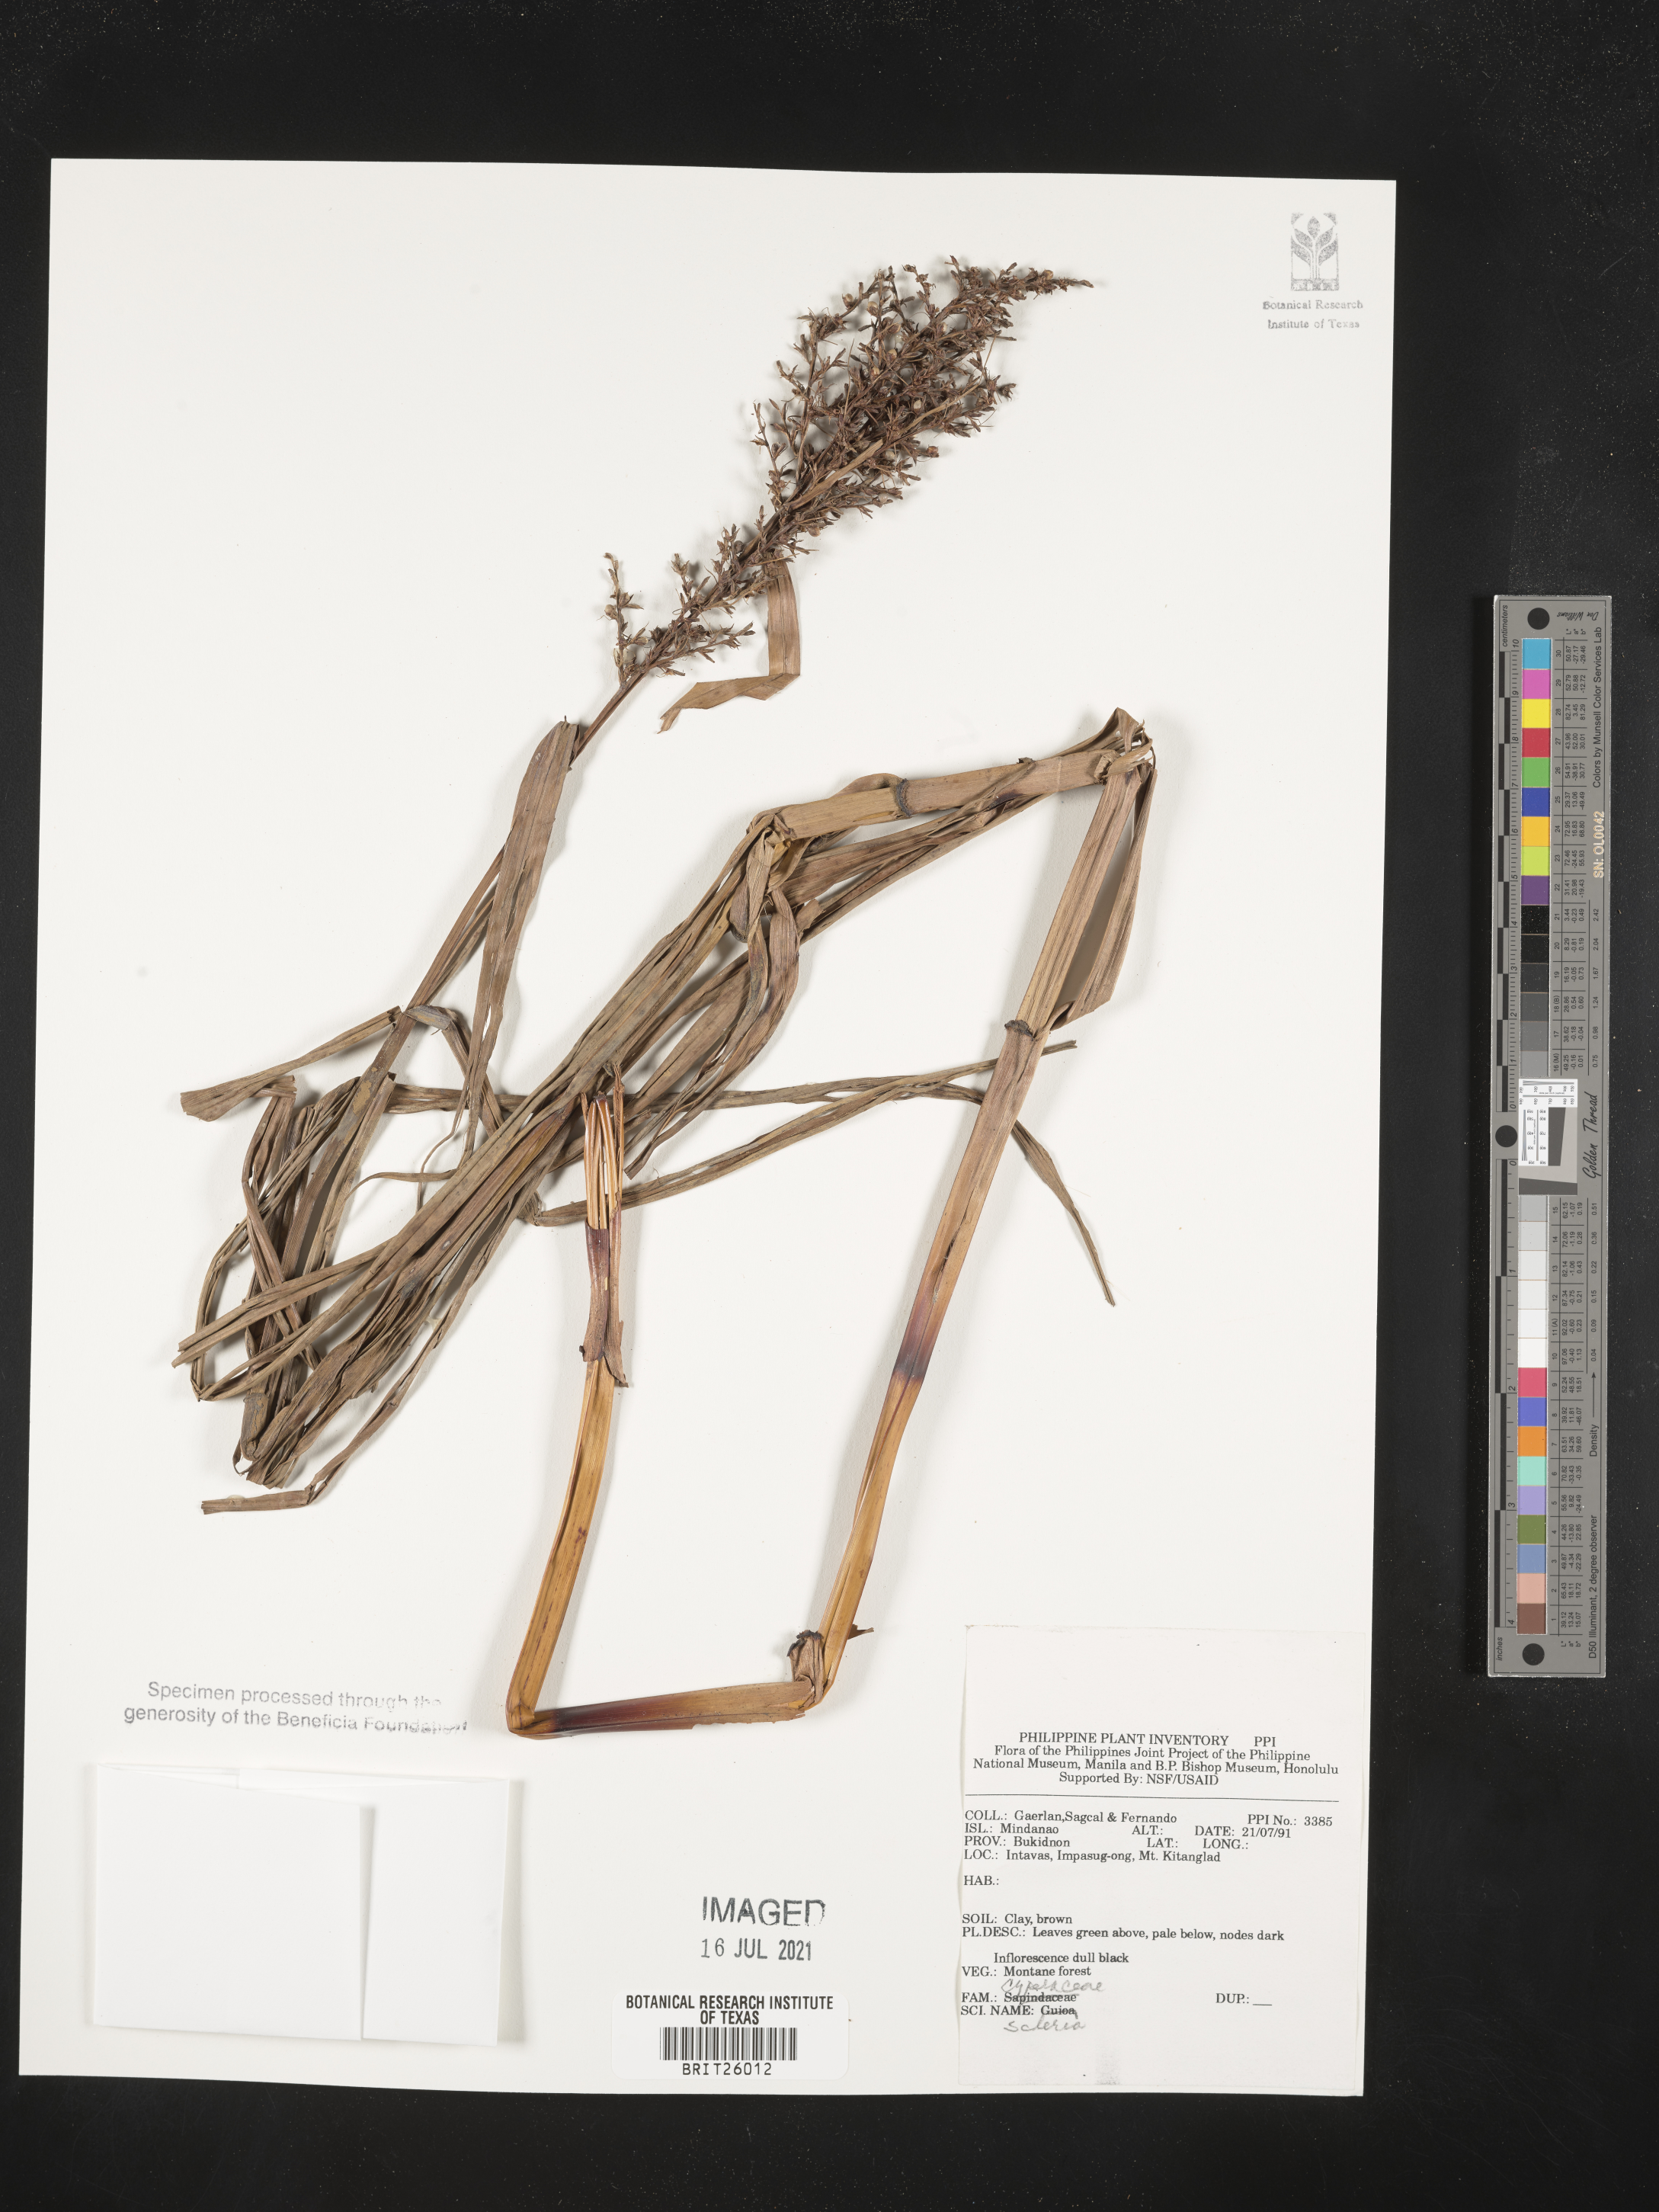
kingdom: Plantae
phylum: Tracheophyta
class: Liliopsida
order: Poales
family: Cyperaceae
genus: Scleria
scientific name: Scleria
